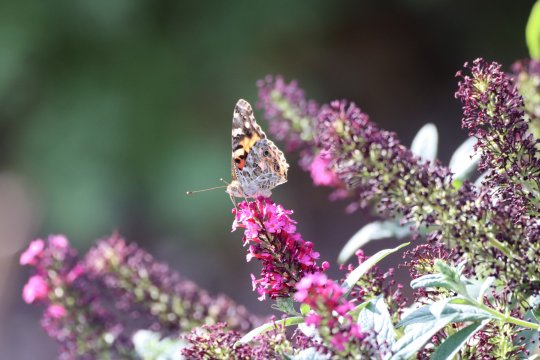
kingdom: Animalia
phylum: Arthropoda
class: Insecta
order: Lepidoptera
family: Nymphalidae
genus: Vanessa
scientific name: Vanessa cardui
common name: Painted Lady
